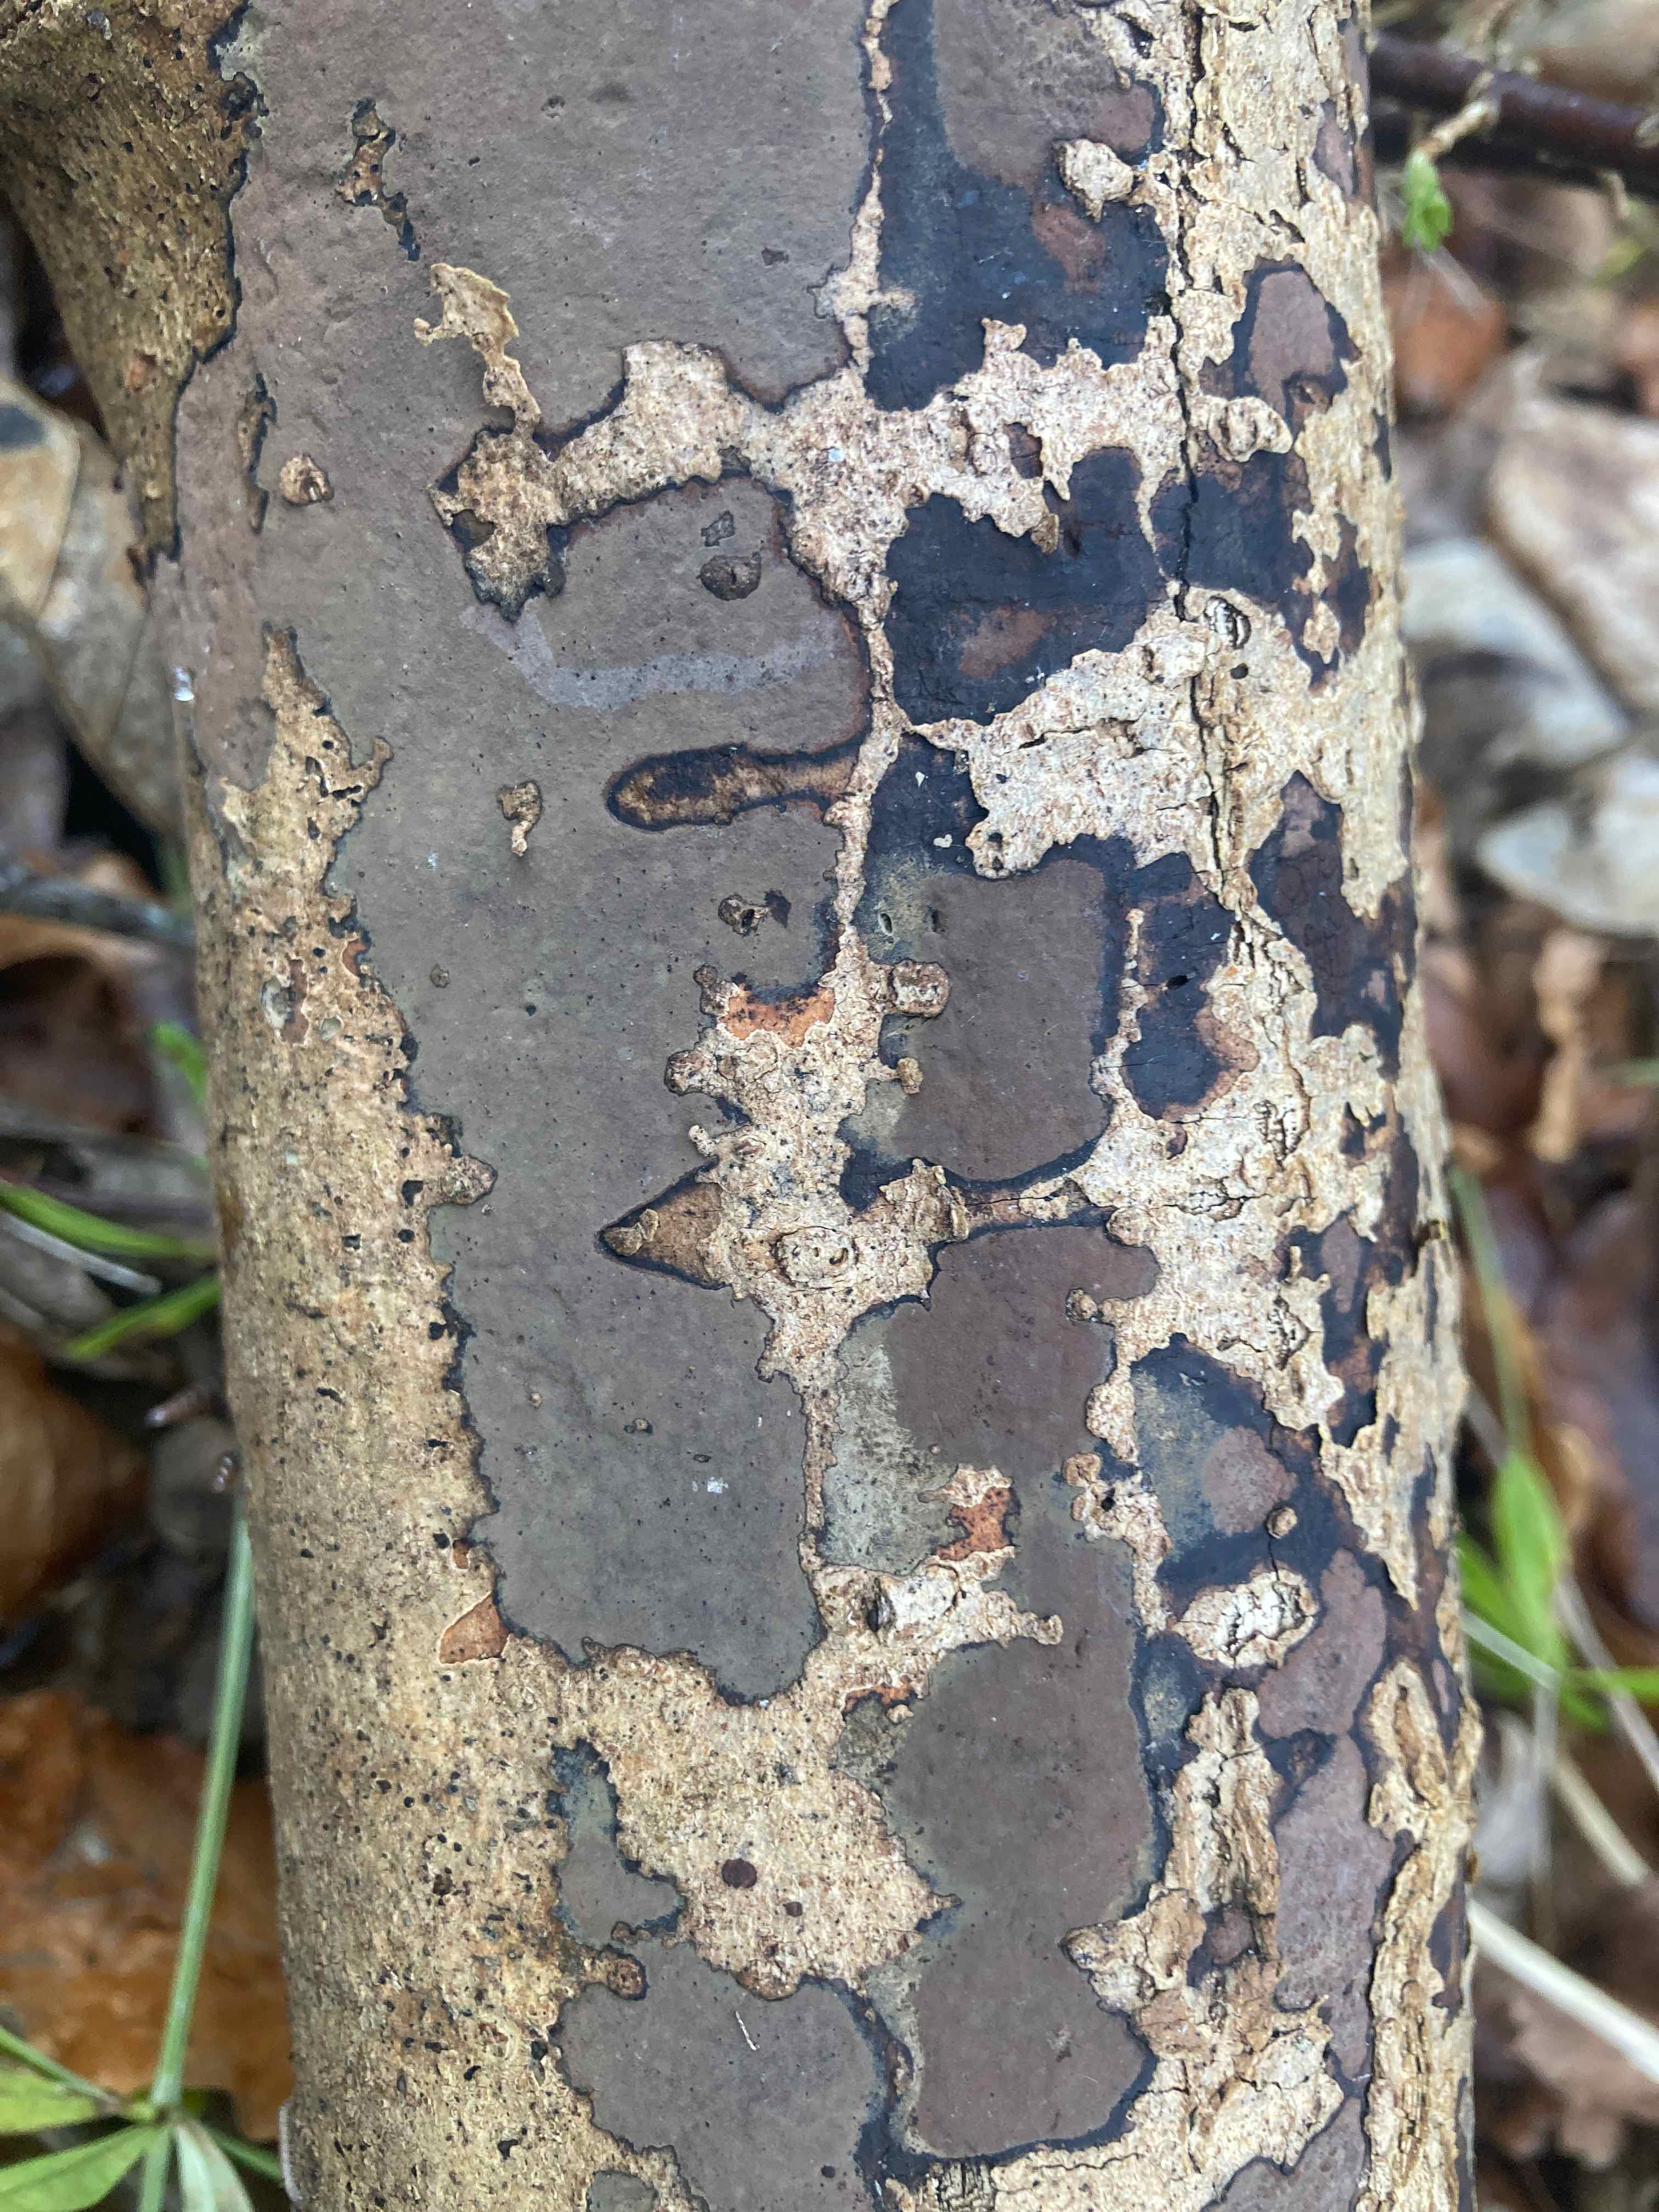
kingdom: Fungi
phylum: Ascomycota
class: Sordariomycetes
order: Xylariales
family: Hypoxylaceae
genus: Hypoxylon
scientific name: Hypoxylon petriniae
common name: nedsænket kulbær
